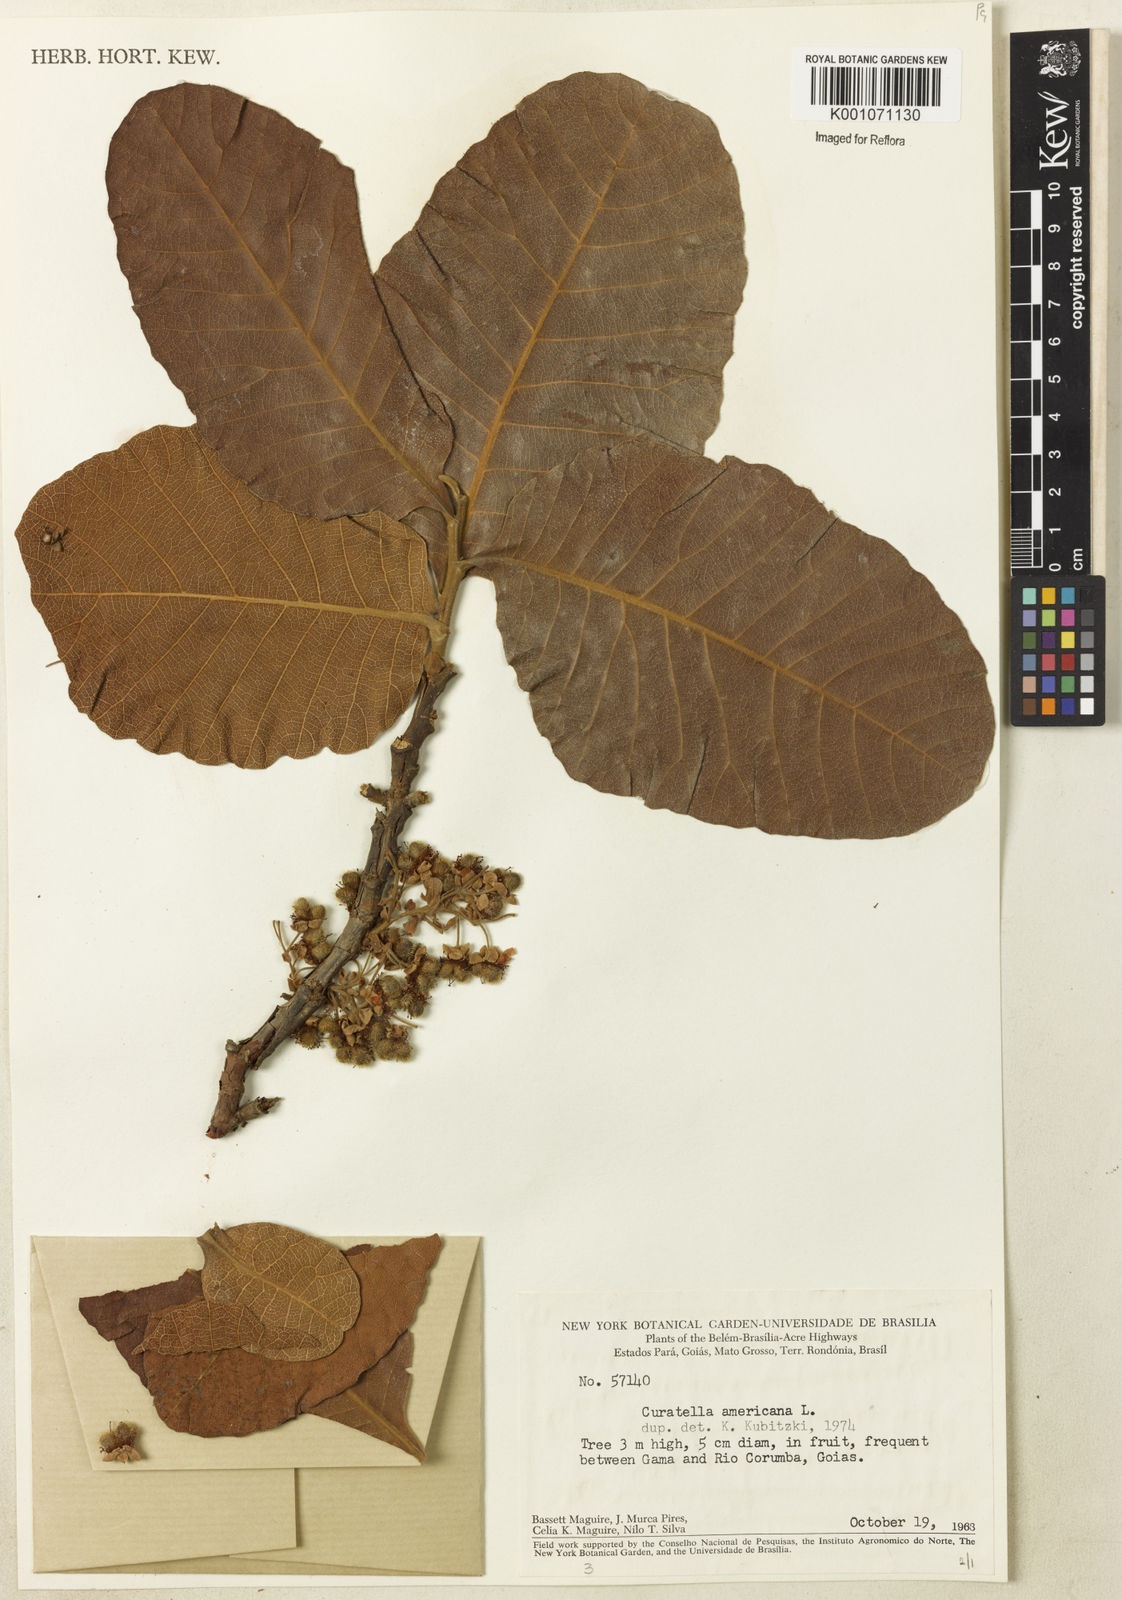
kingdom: Plantae
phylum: Tracheophyta
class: Magnoliopsida
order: Dilleniales
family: Dilleniaceae
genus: Curatella
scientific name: Curatella americana
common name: Sandpaper tree
